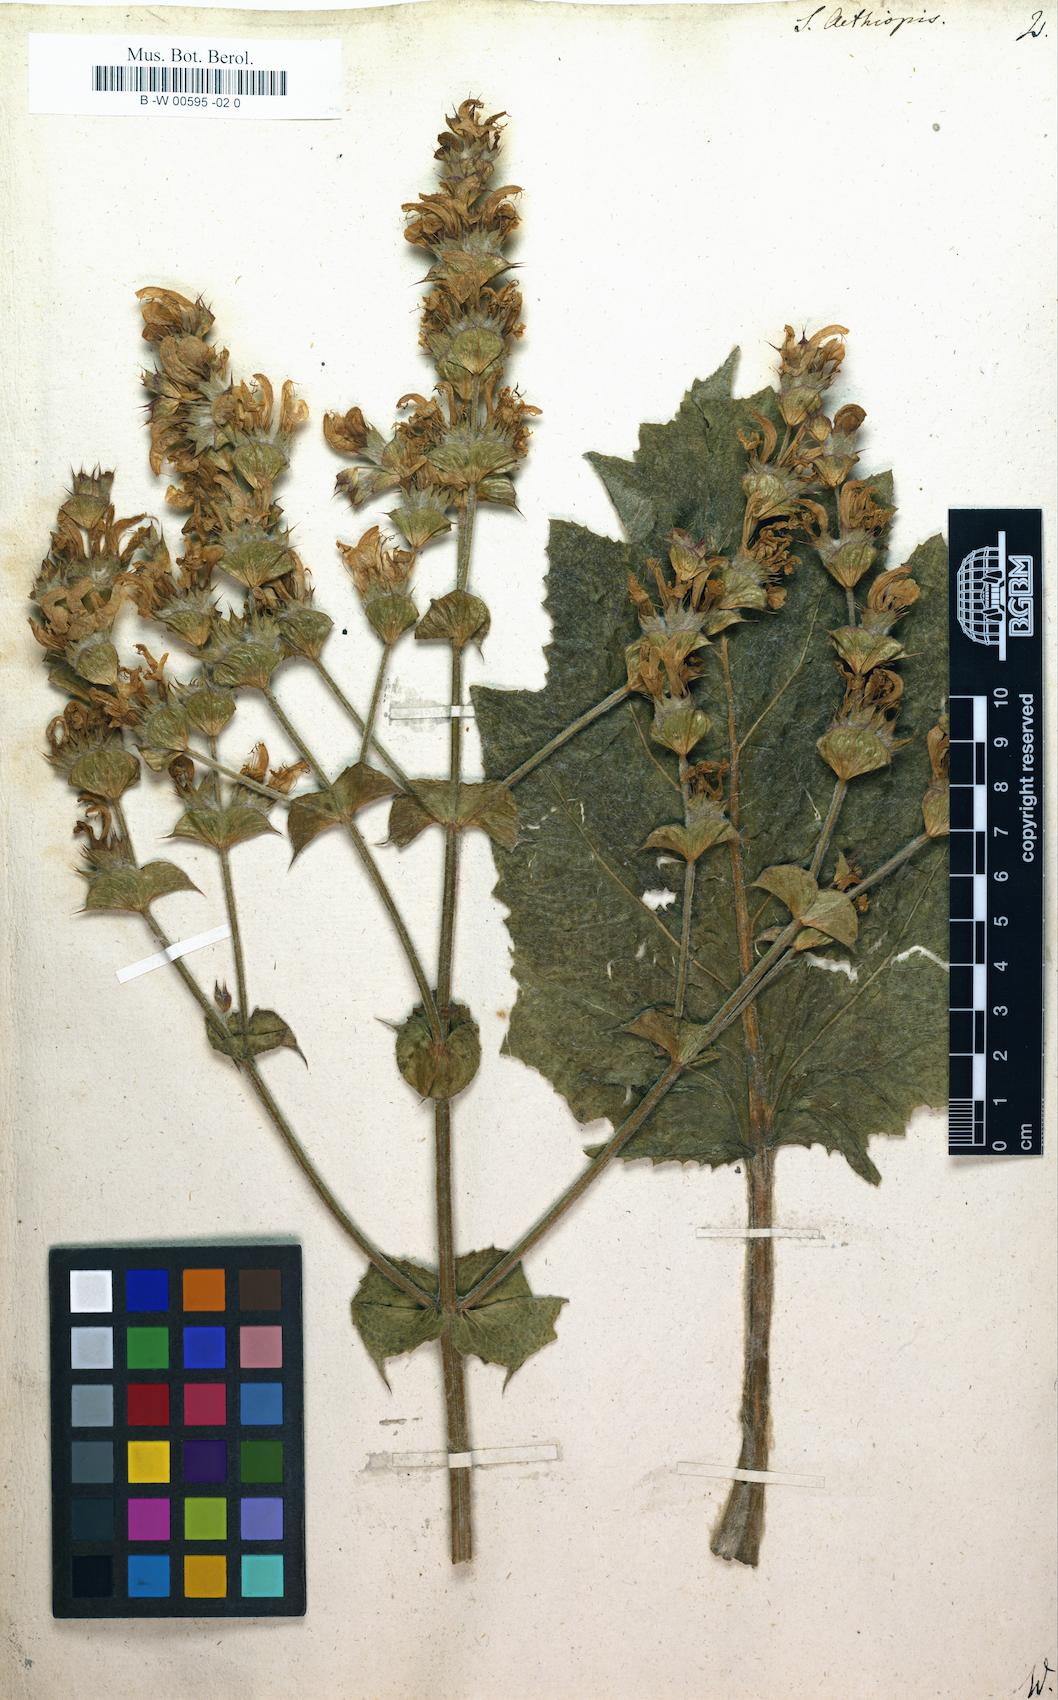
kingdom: Plantae
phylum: Tracheophyta
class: Magnoliopsida
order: Lamiales
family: Lamiaceae
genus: Salvia
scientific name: Salvia aethiopis
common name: Mediterranean sage
